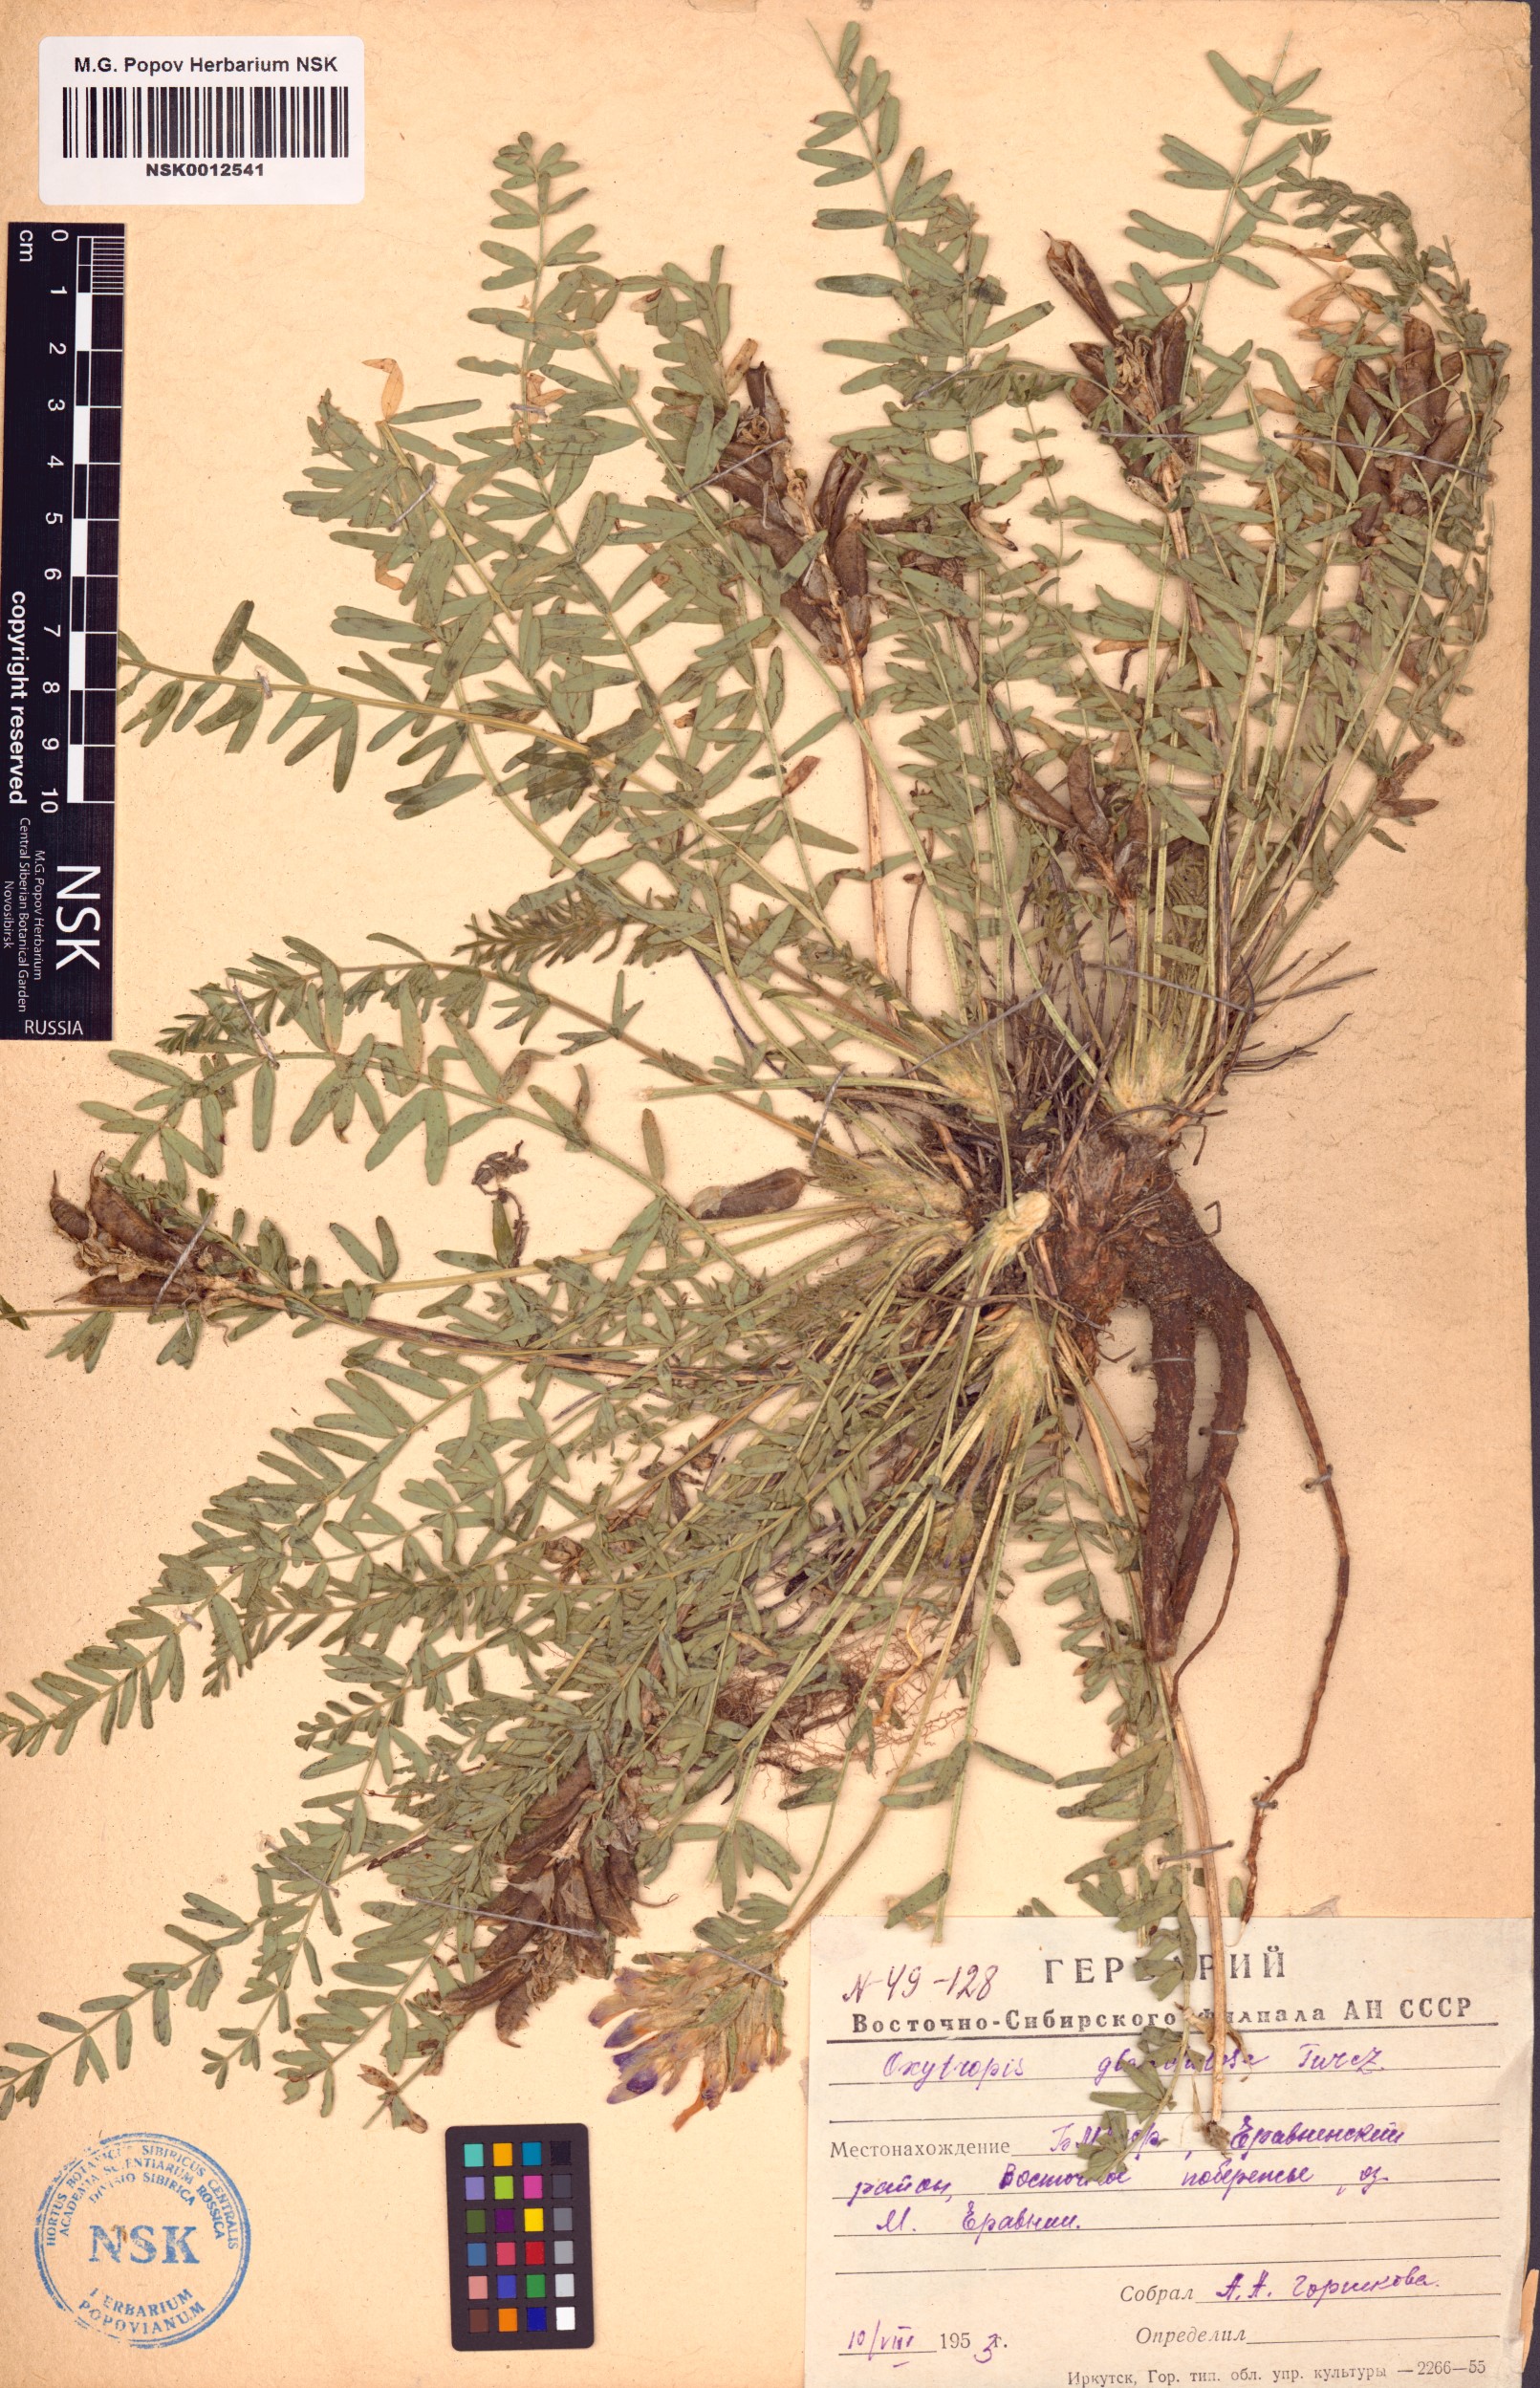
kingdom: Plantae
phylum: Tracheophyta
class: Magnoliopsida
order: Fabales
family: Fabaceae
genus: Oxytropis
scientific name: Oxytropis glandulosa
